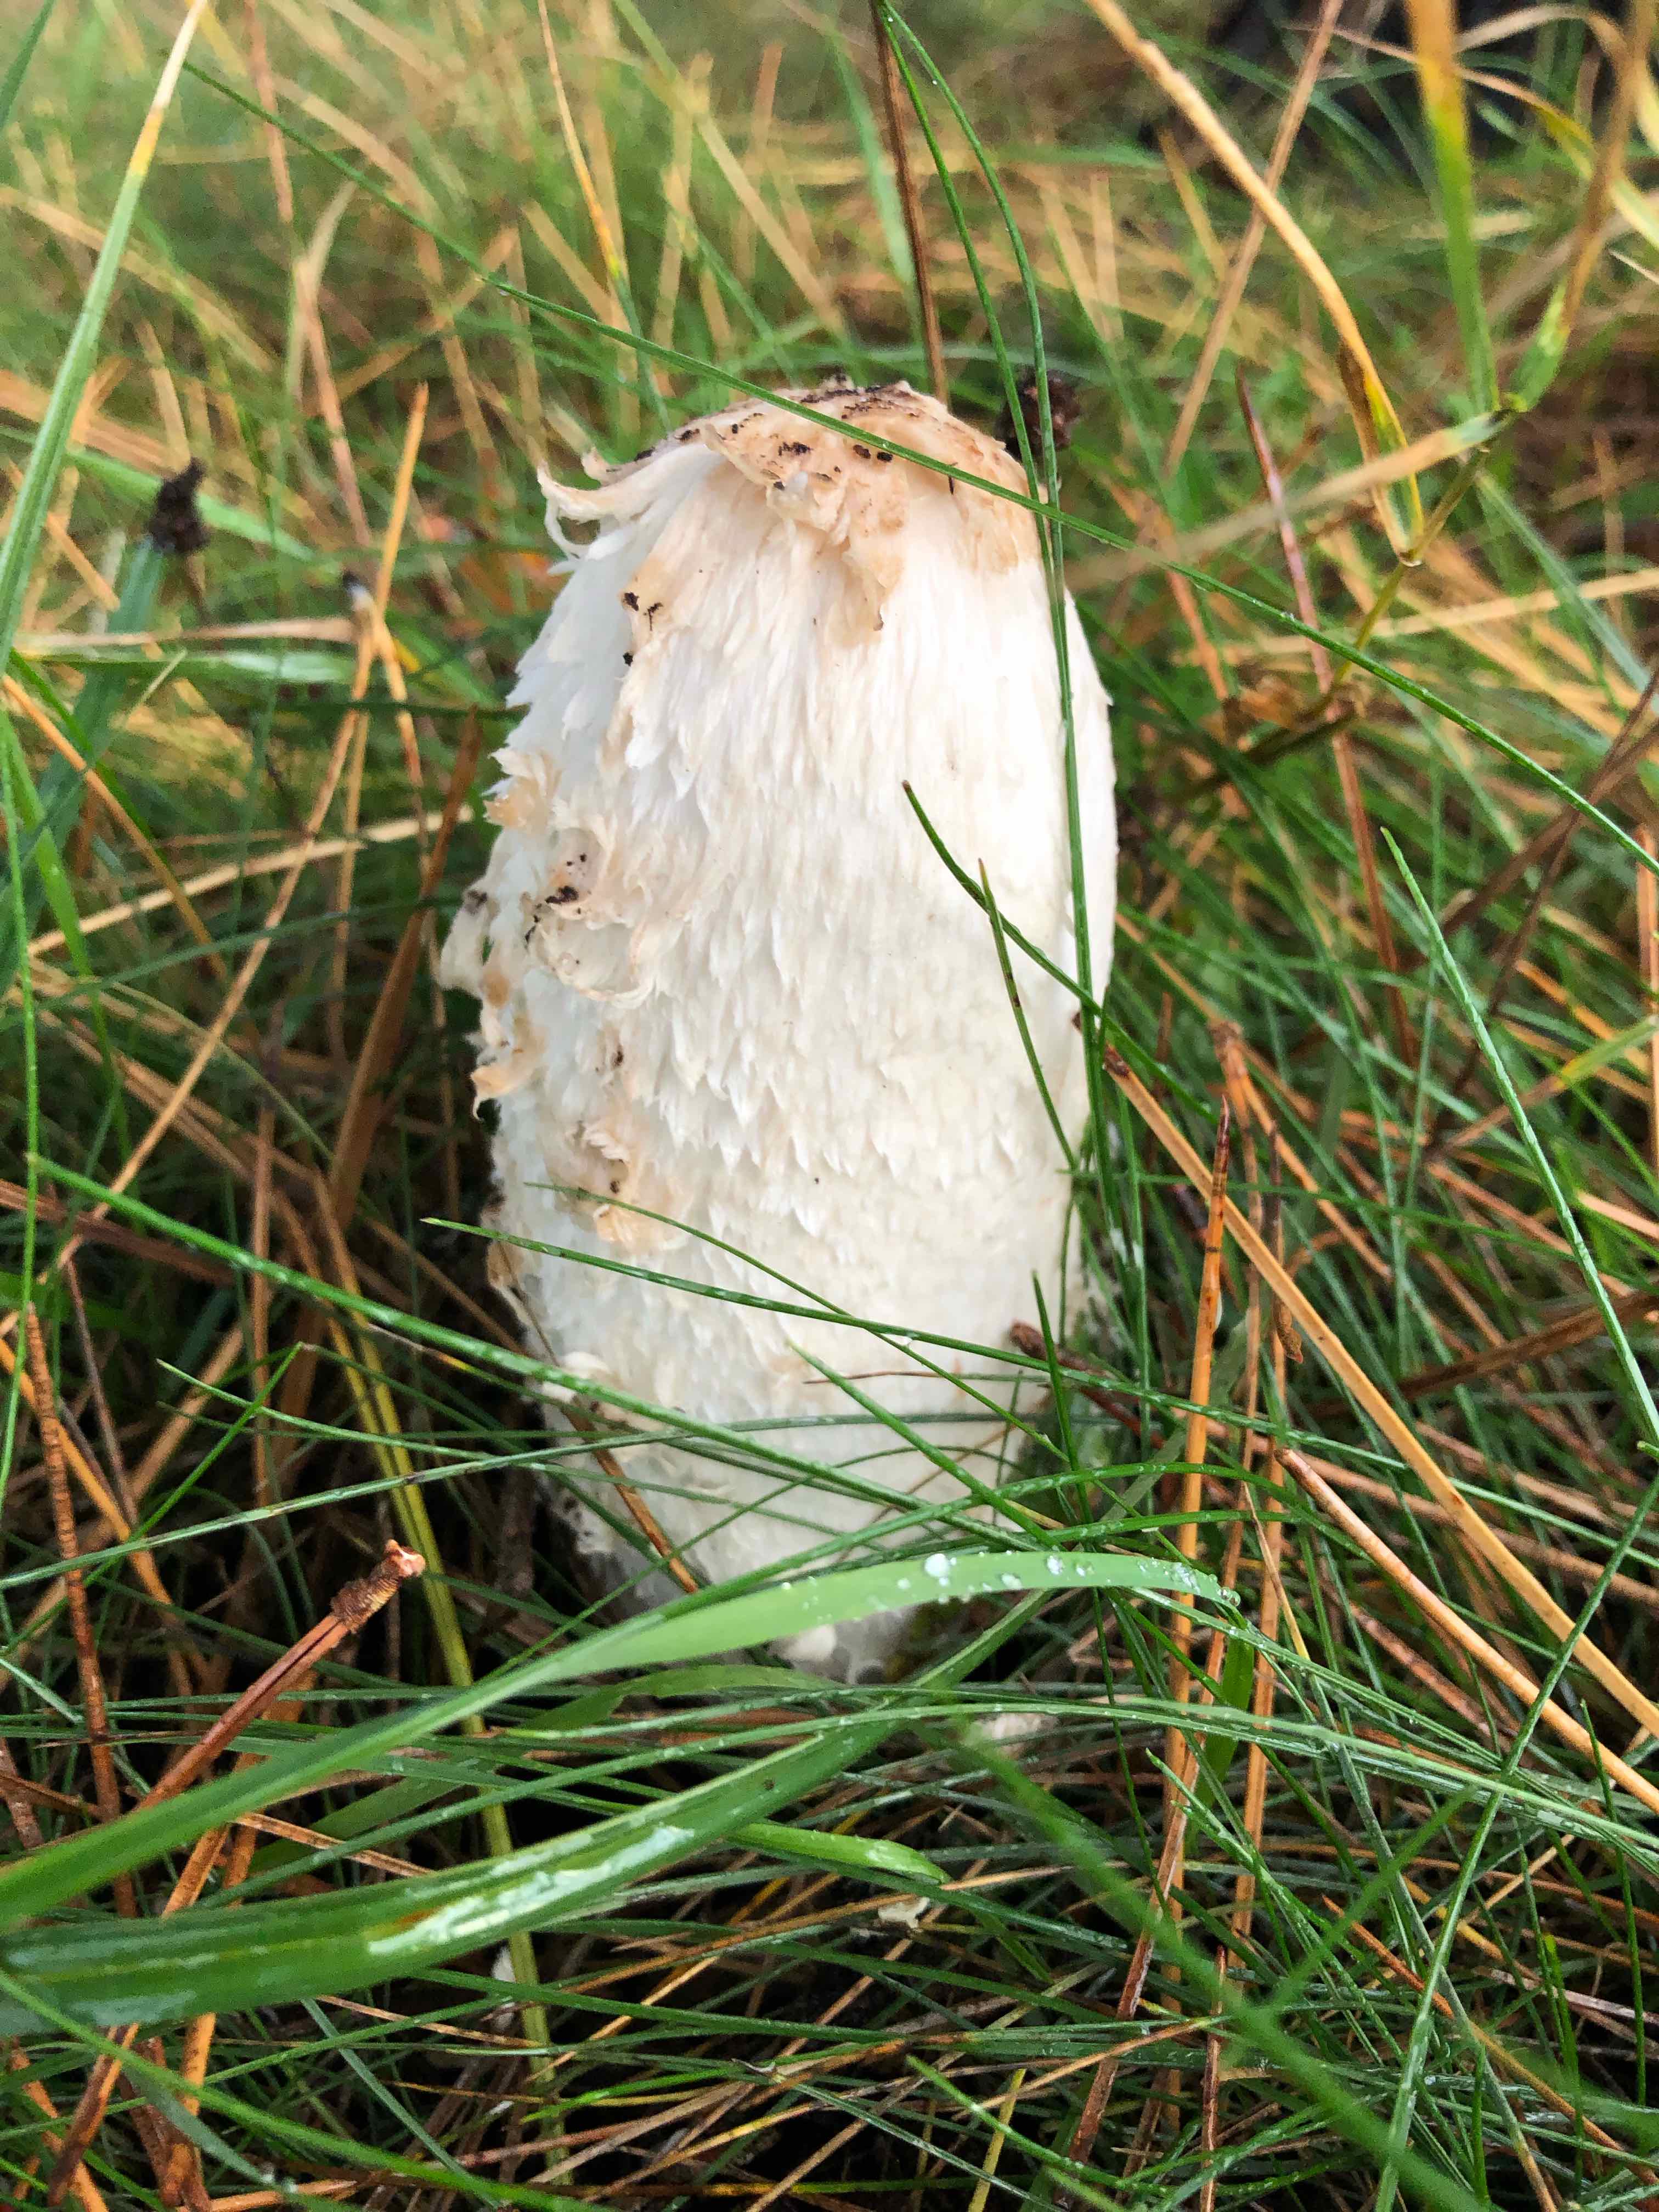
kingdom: Fungi
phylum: Basidiomycota
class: Agaricomycetes
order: Agaricales
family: Agaricaceae
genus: Coprinus
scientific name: Coprinus comatus
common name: stor parykhat
